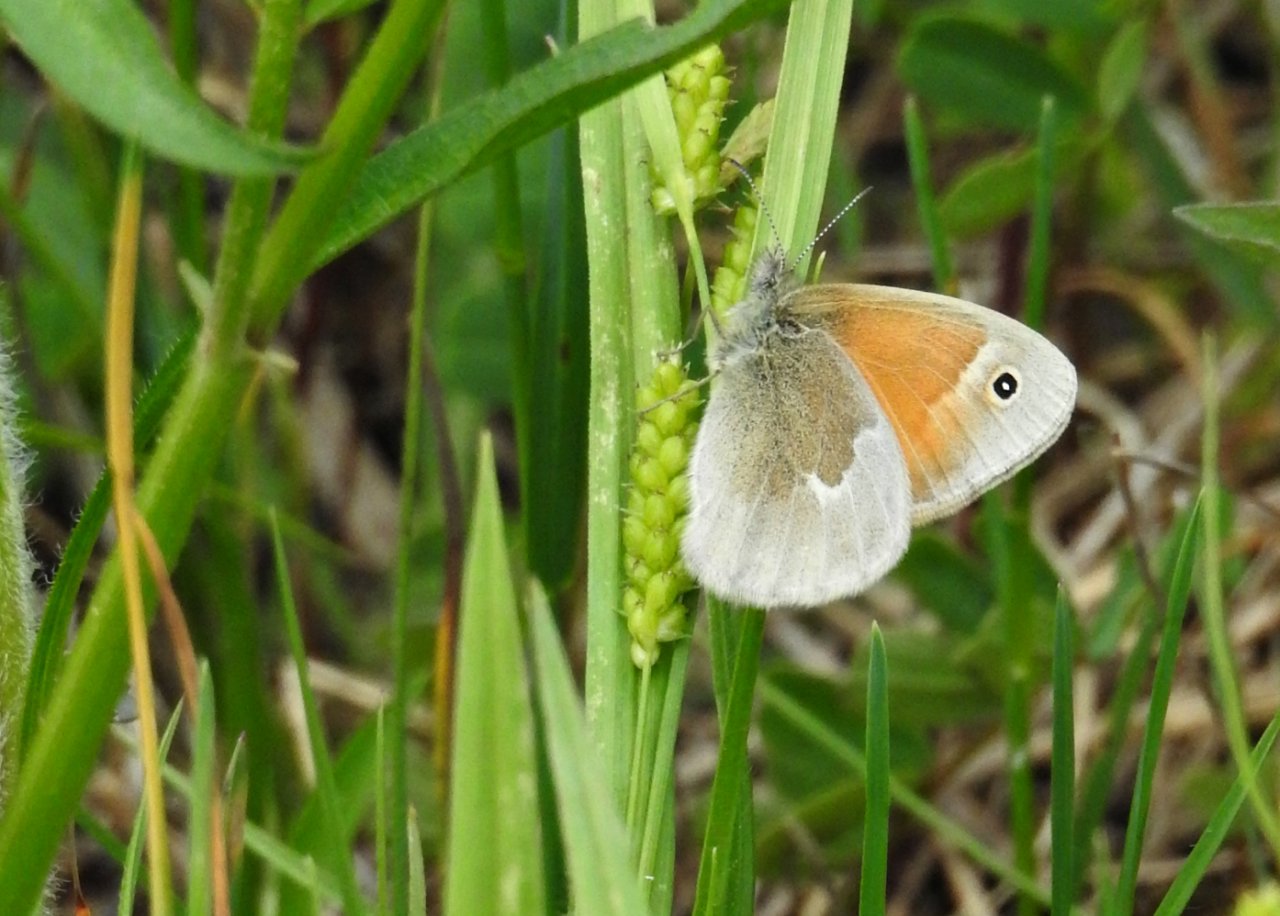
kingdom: Animalia
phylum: Arthropoda
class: Insecta
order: Lepidoptera
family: Nymphalidae
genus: Coenonympha
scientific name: Coenonympha tullia
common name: Large Heath
